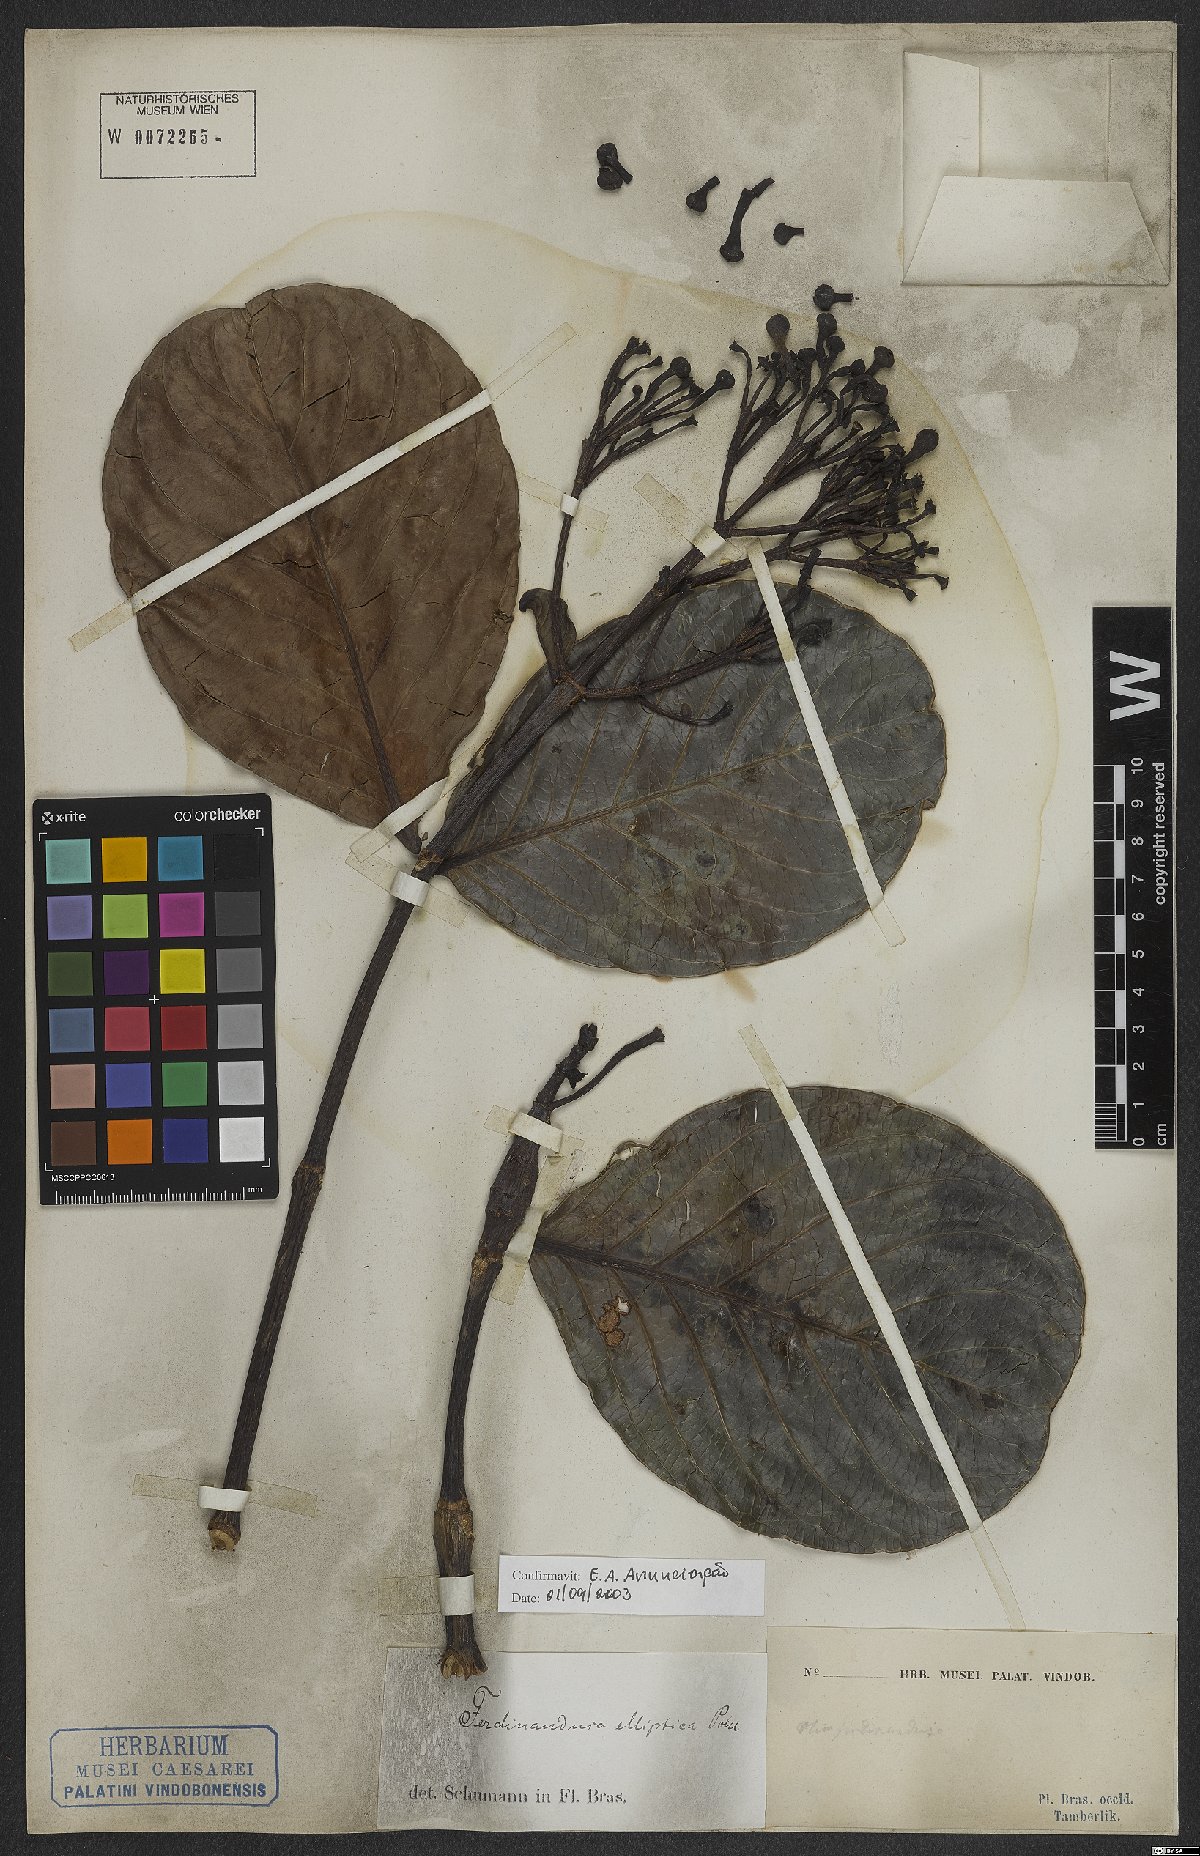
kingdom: Plantae
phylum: Tracheophyta
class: Magnoliopsida
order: Gentianales
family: Rubiaceae
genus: Ferdinandusa
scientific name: Ferdinandusa elliptica
